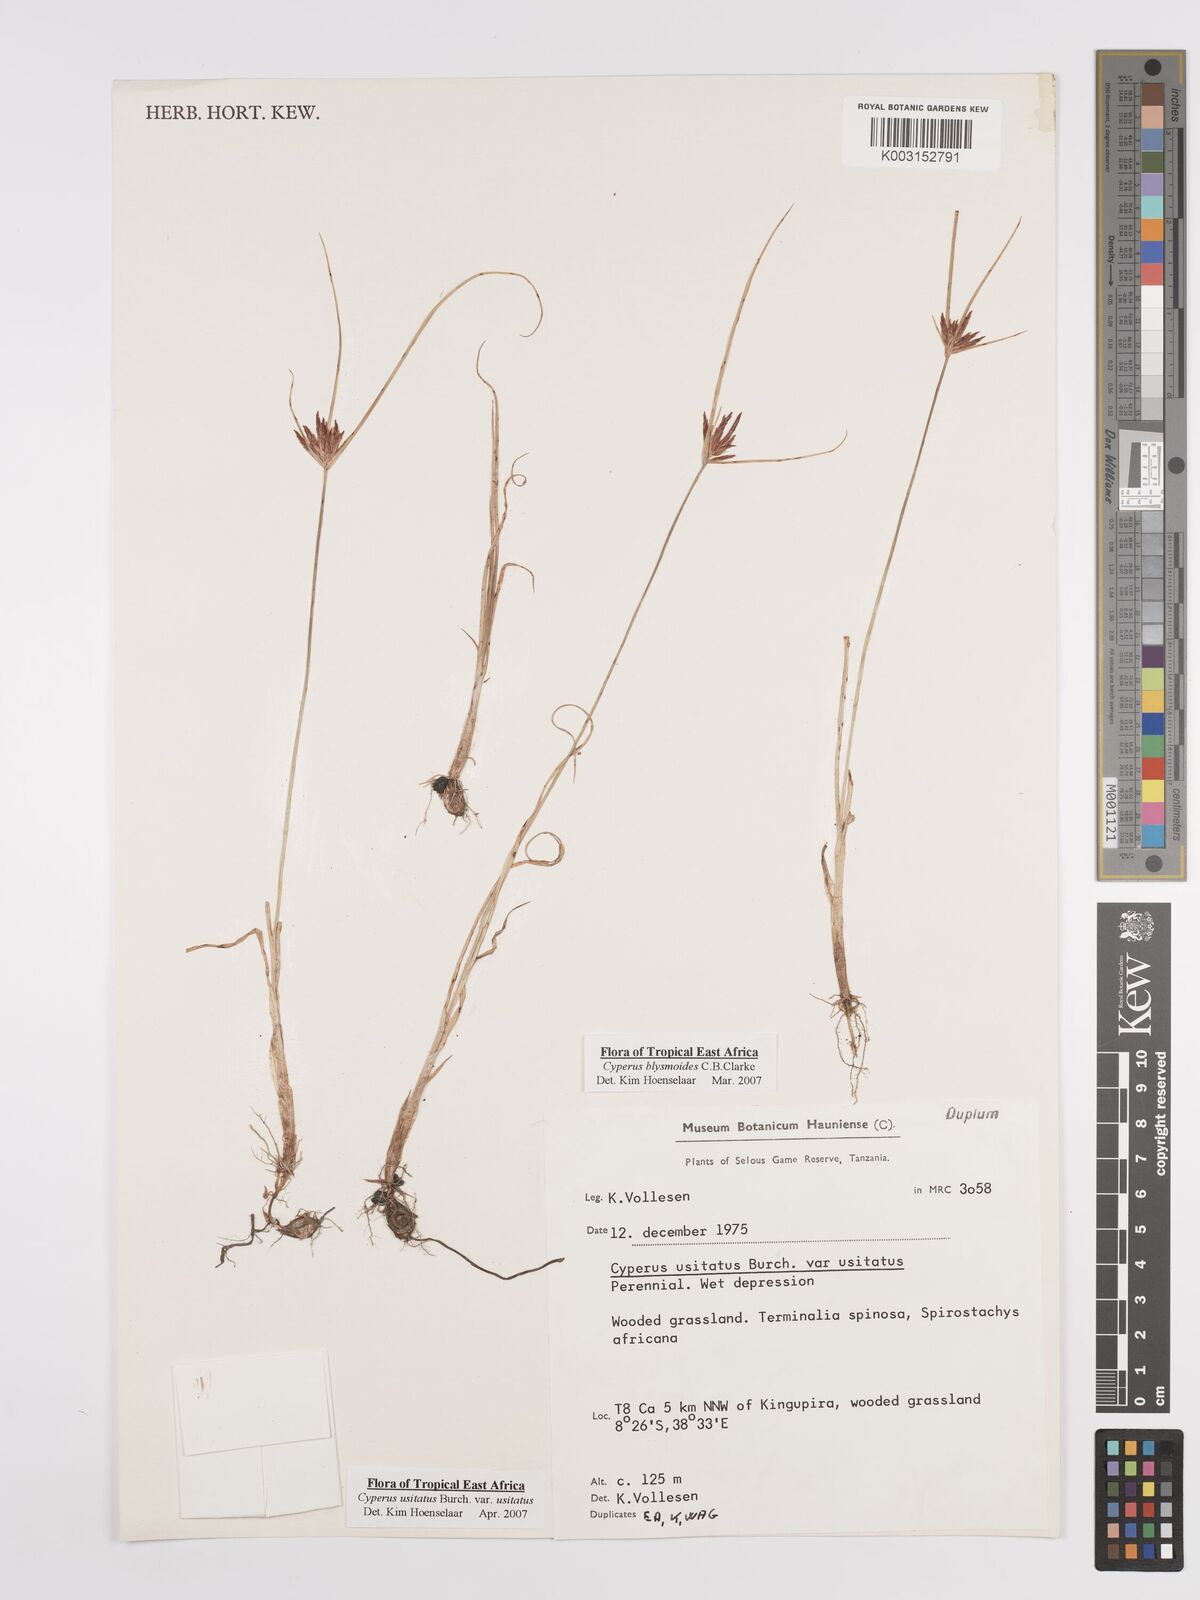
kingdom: Plantae
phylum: Tracheophyta
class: Liliopsida
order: Poales
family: Cyperaceae
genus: Cyperus
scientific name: Cyperus usitatus
